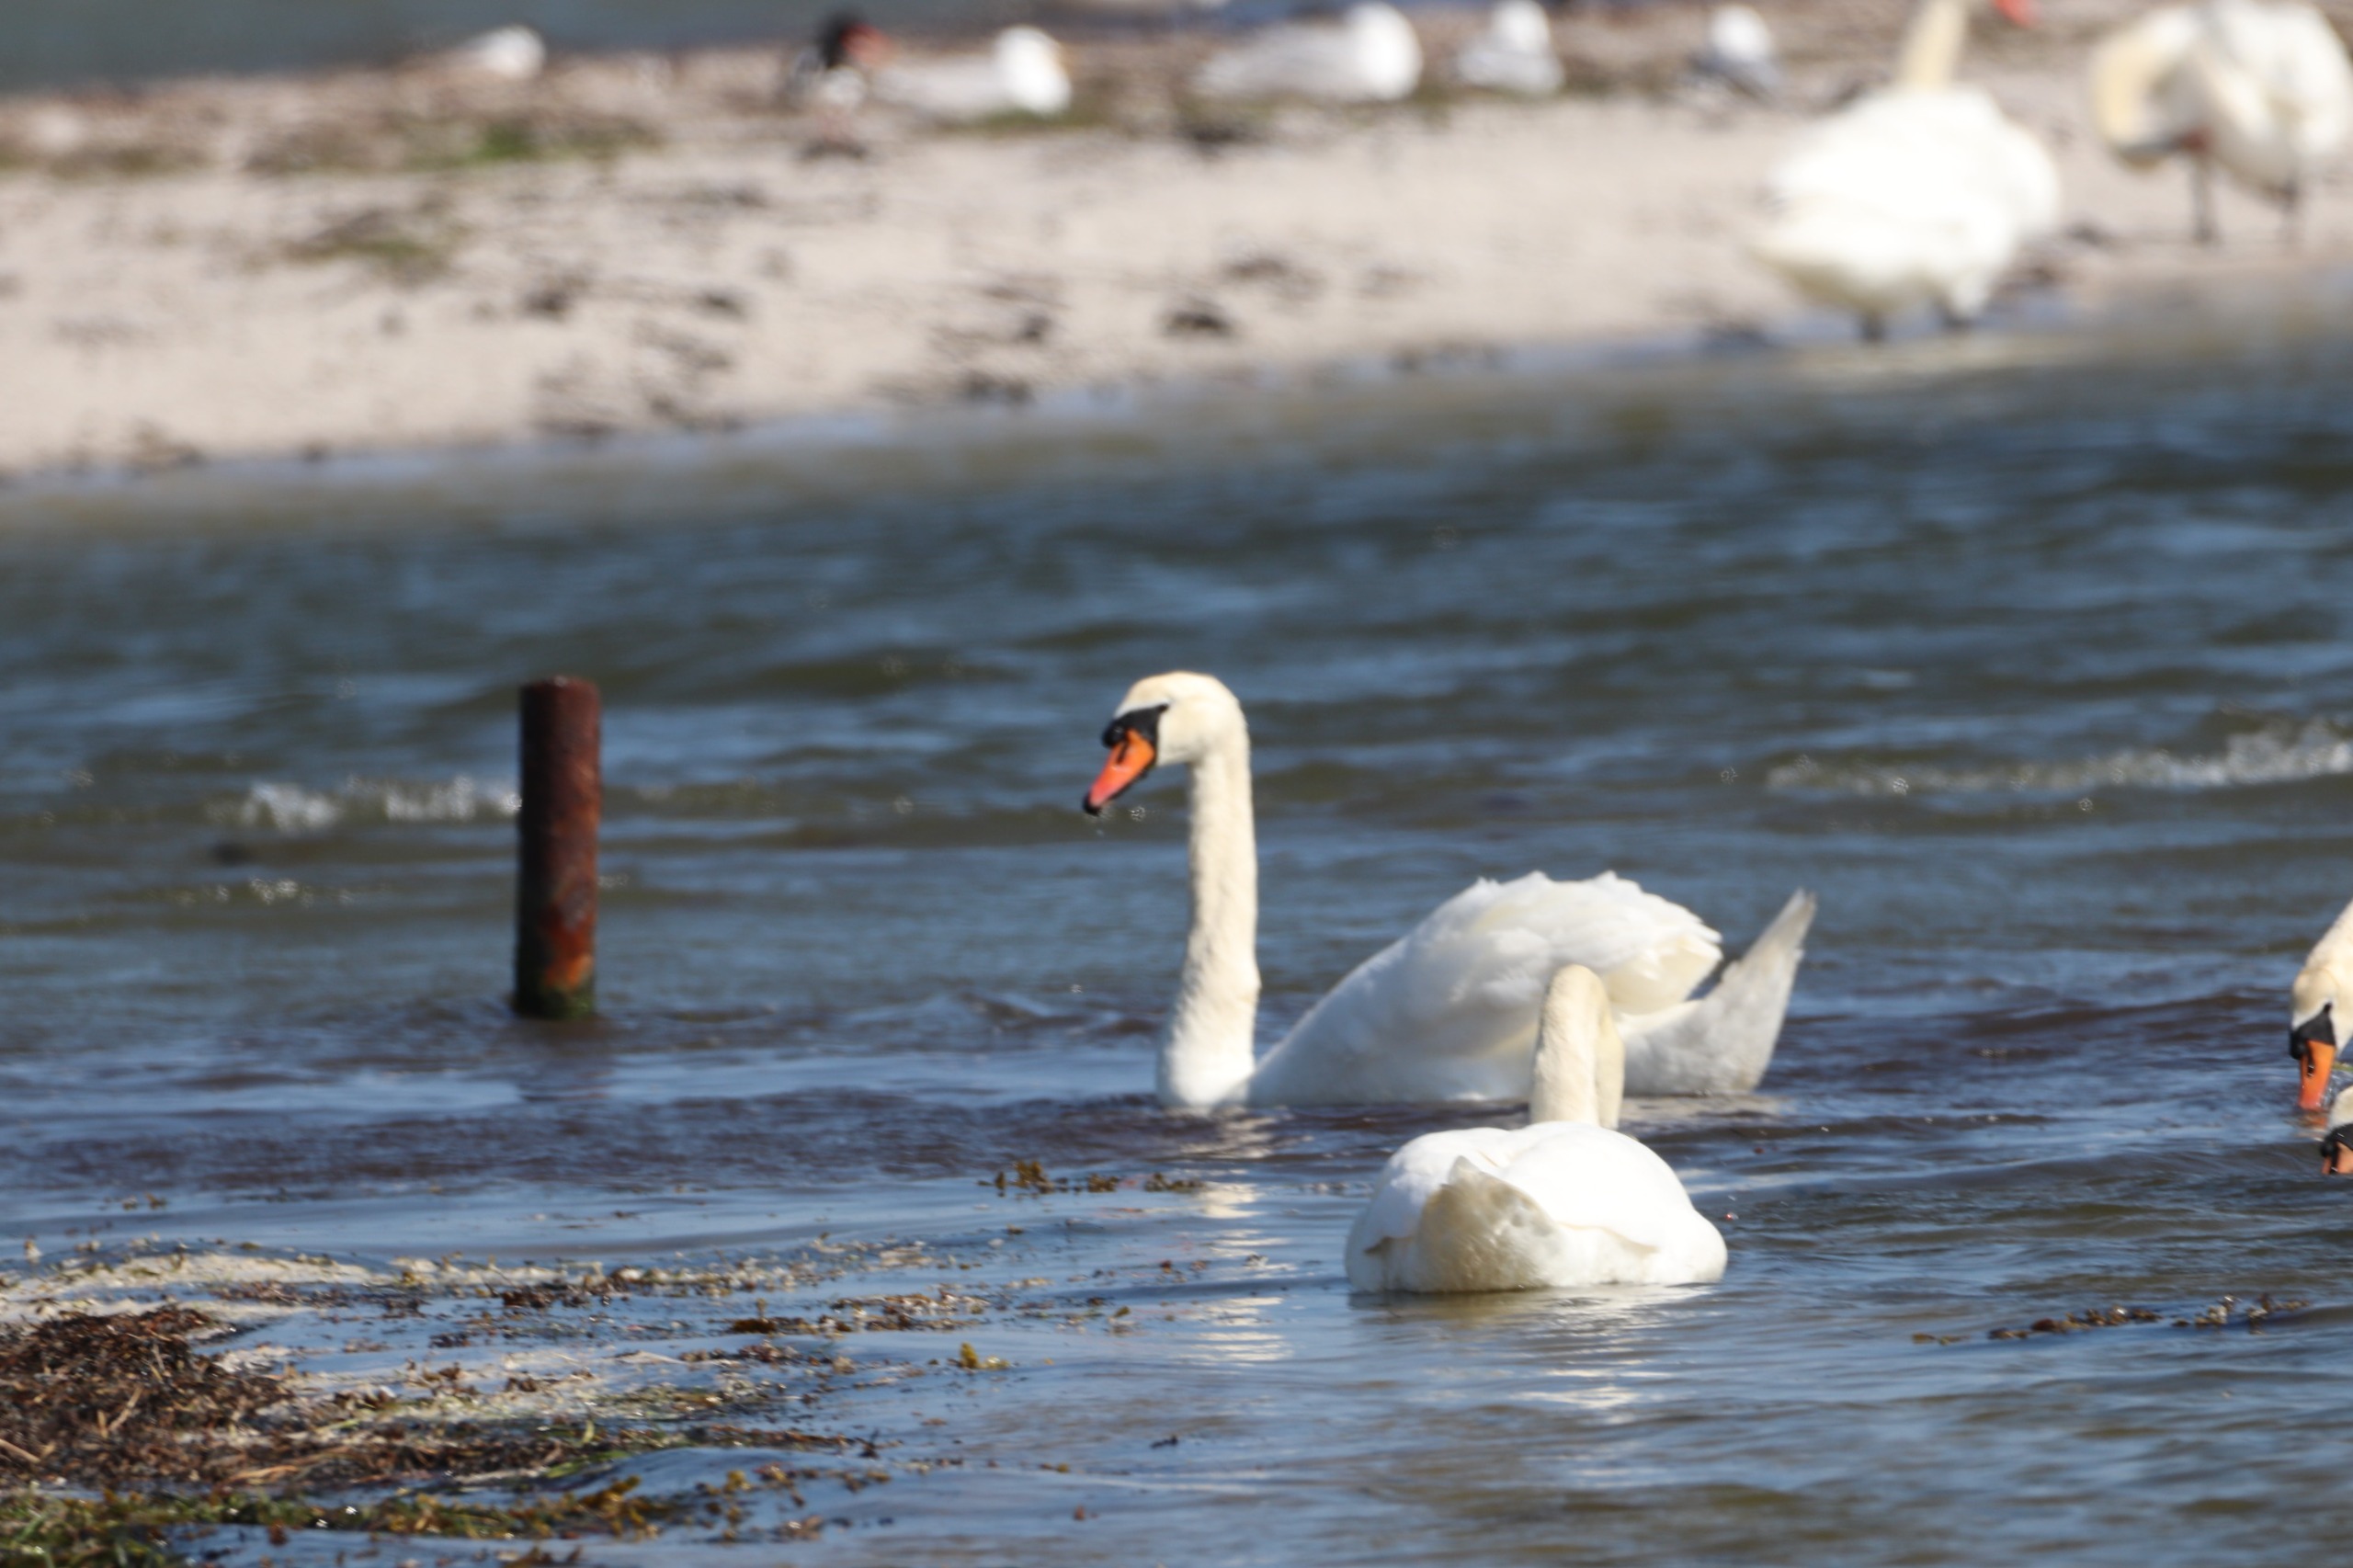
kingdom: Animalia
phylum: Chordata
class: Aves
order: Anseriformes
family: Anatidae
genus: Cygnus
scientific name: Cygnus olor
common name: Knopsvane
